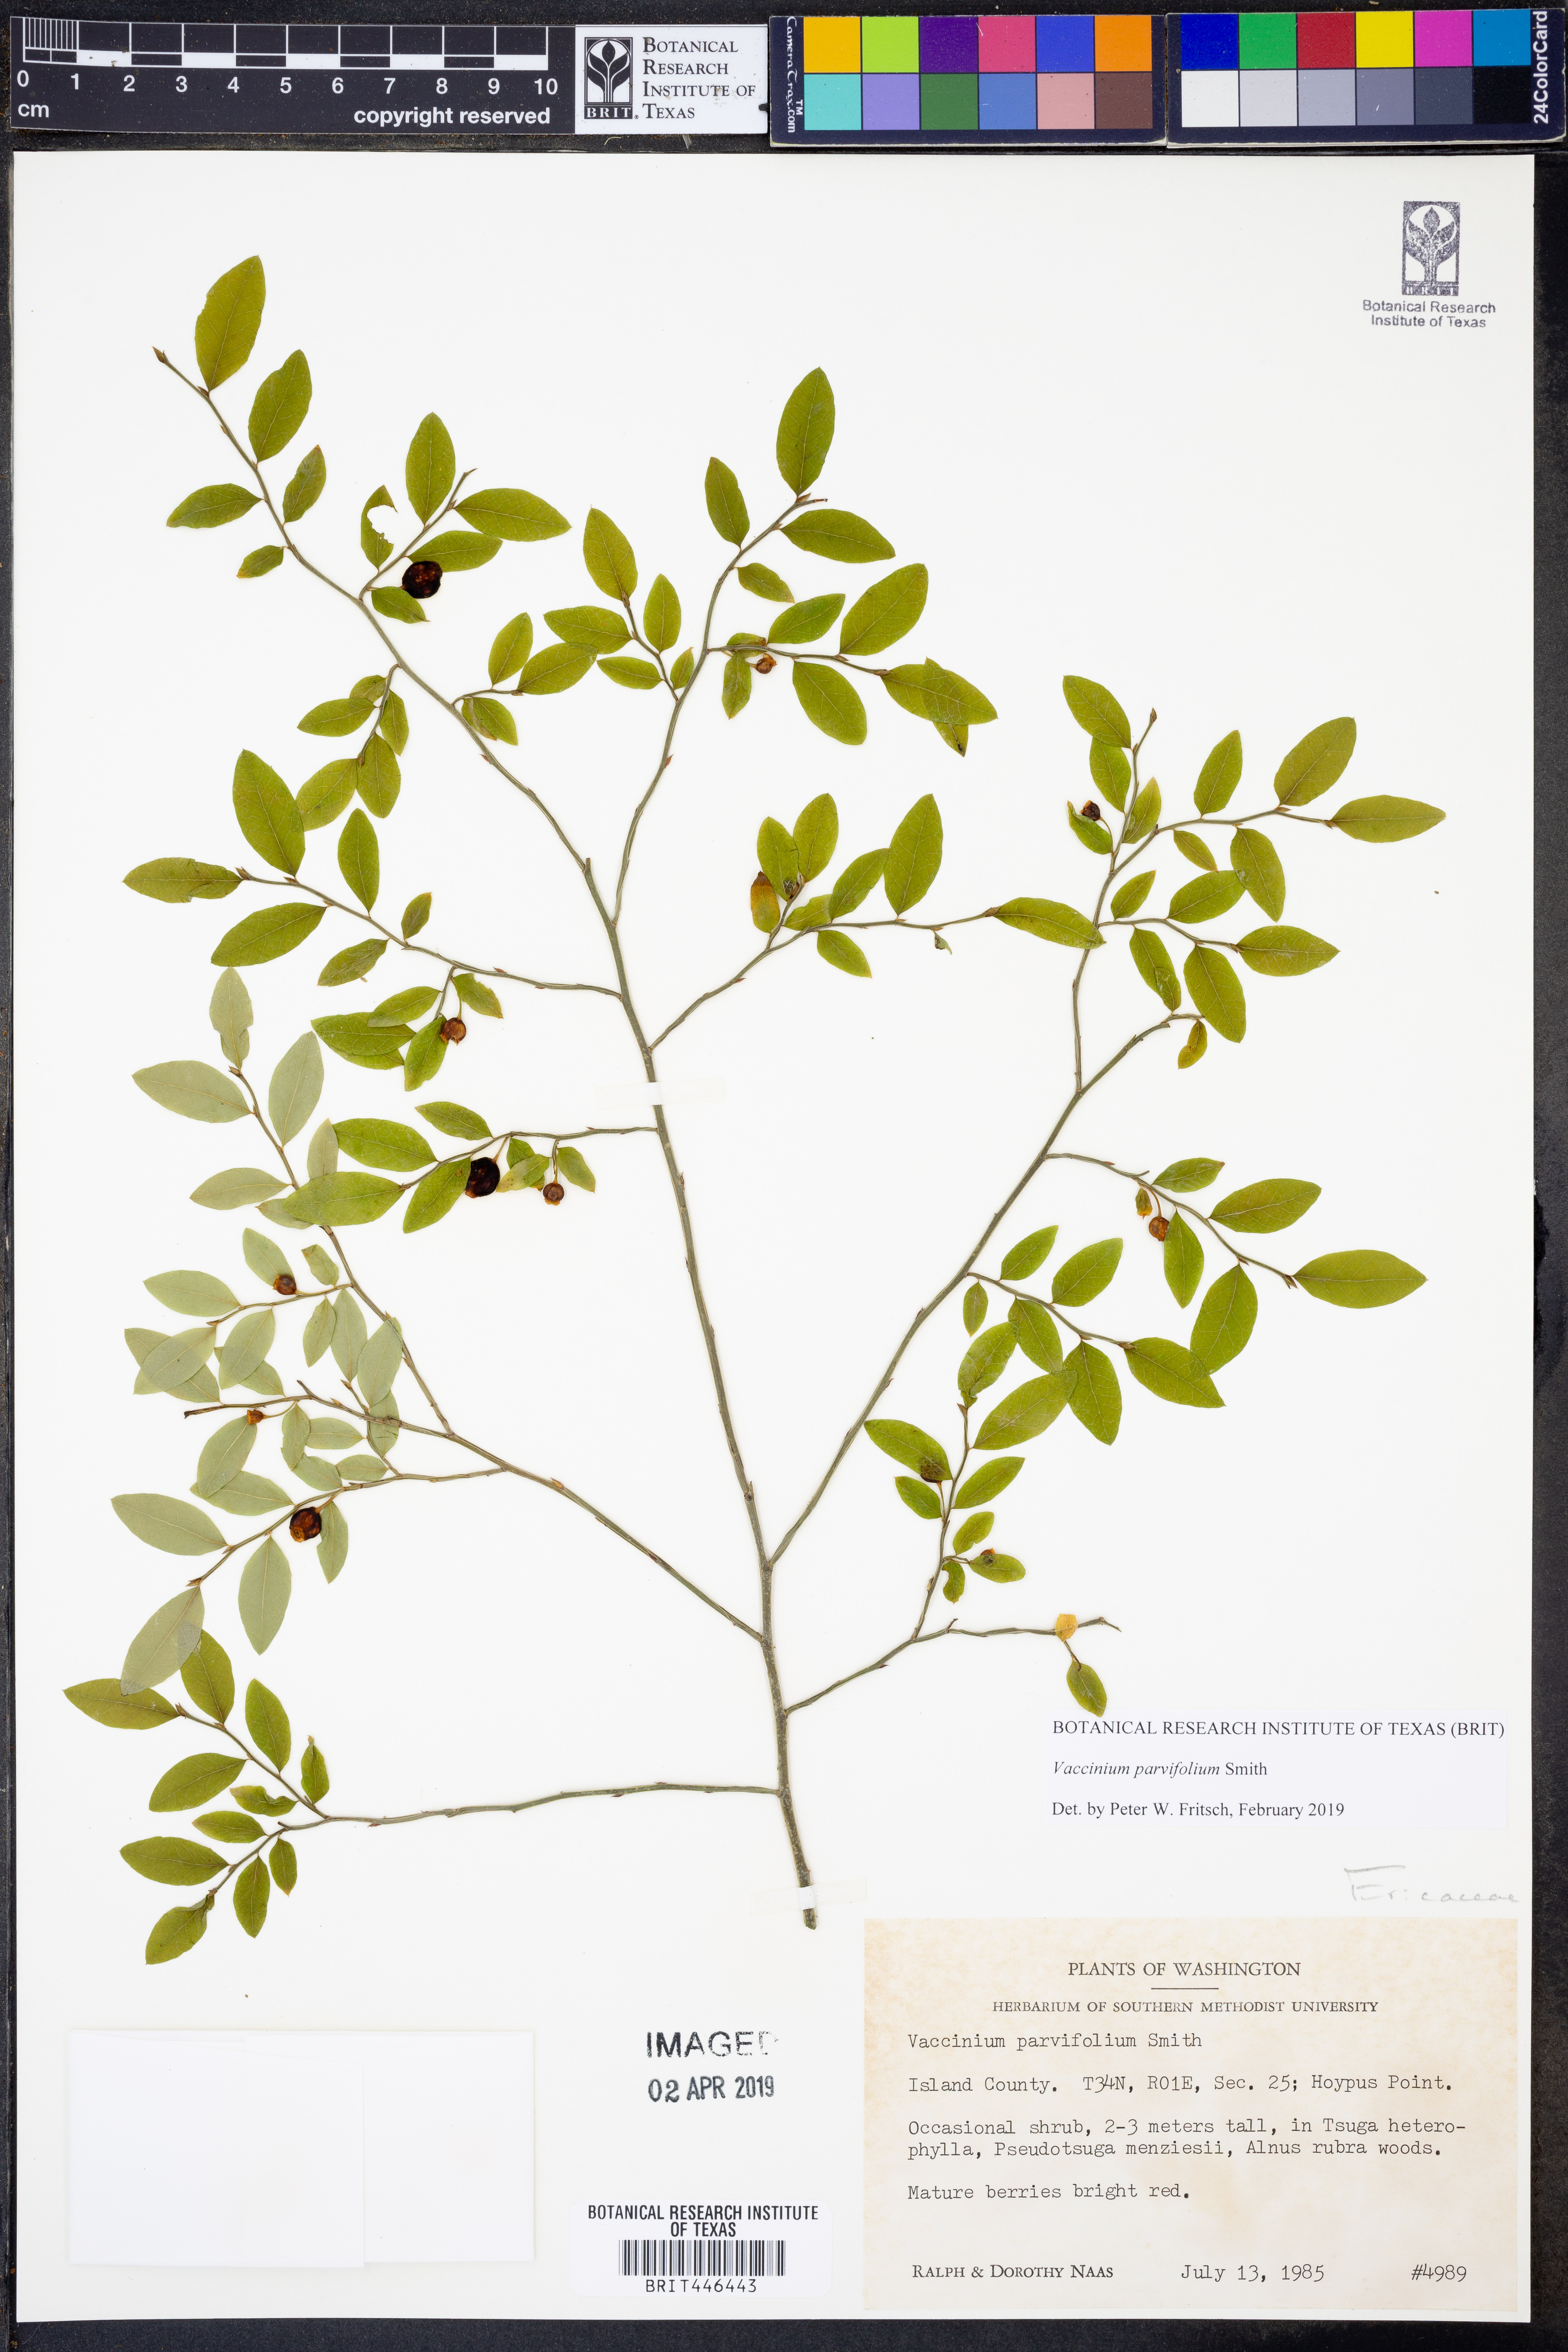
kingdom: Plantae
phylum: Tracheophyta
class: Magnoliopsida
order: Ericales
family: Ericaceae
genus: Vaccinium
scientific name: Vaccinium parvifolium
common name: Red-huckleberry
